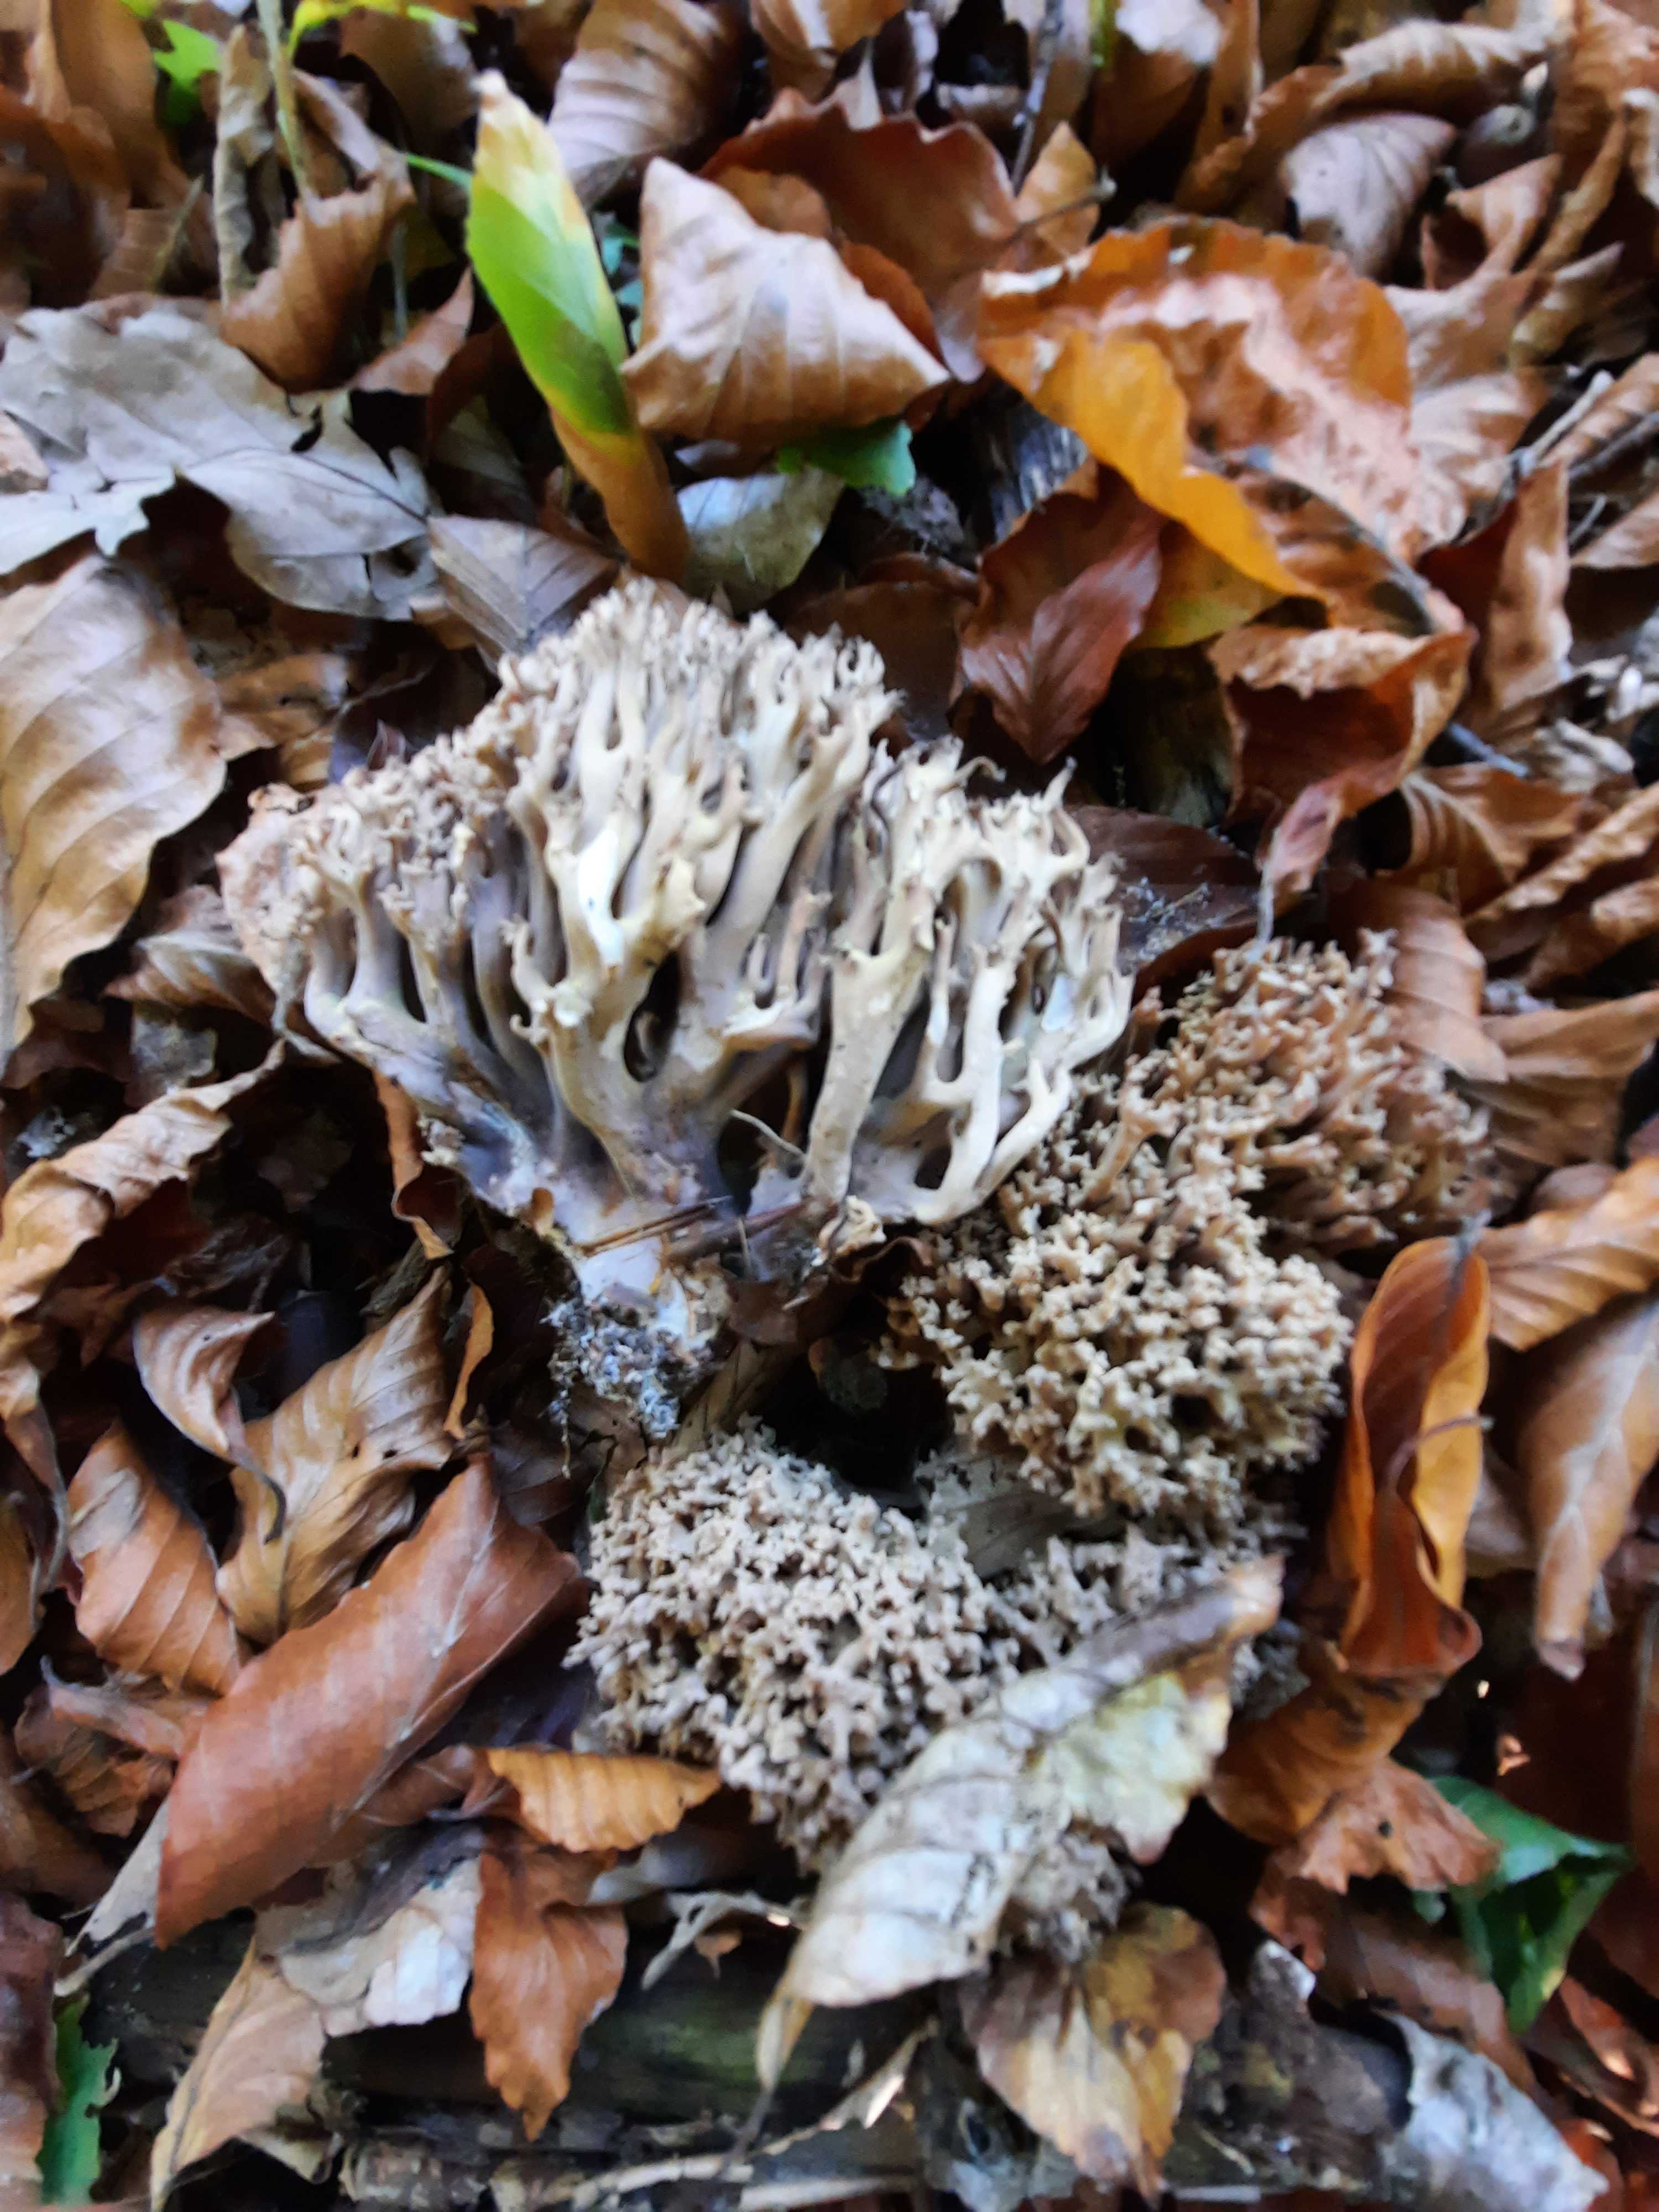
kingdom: Fungi
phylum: Basidiomycota
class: Agaricomycetes
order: Gomphales
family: Gomphaceae
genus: Ramaria
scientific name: Ramaria fumigata
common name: violet koralsvamp
